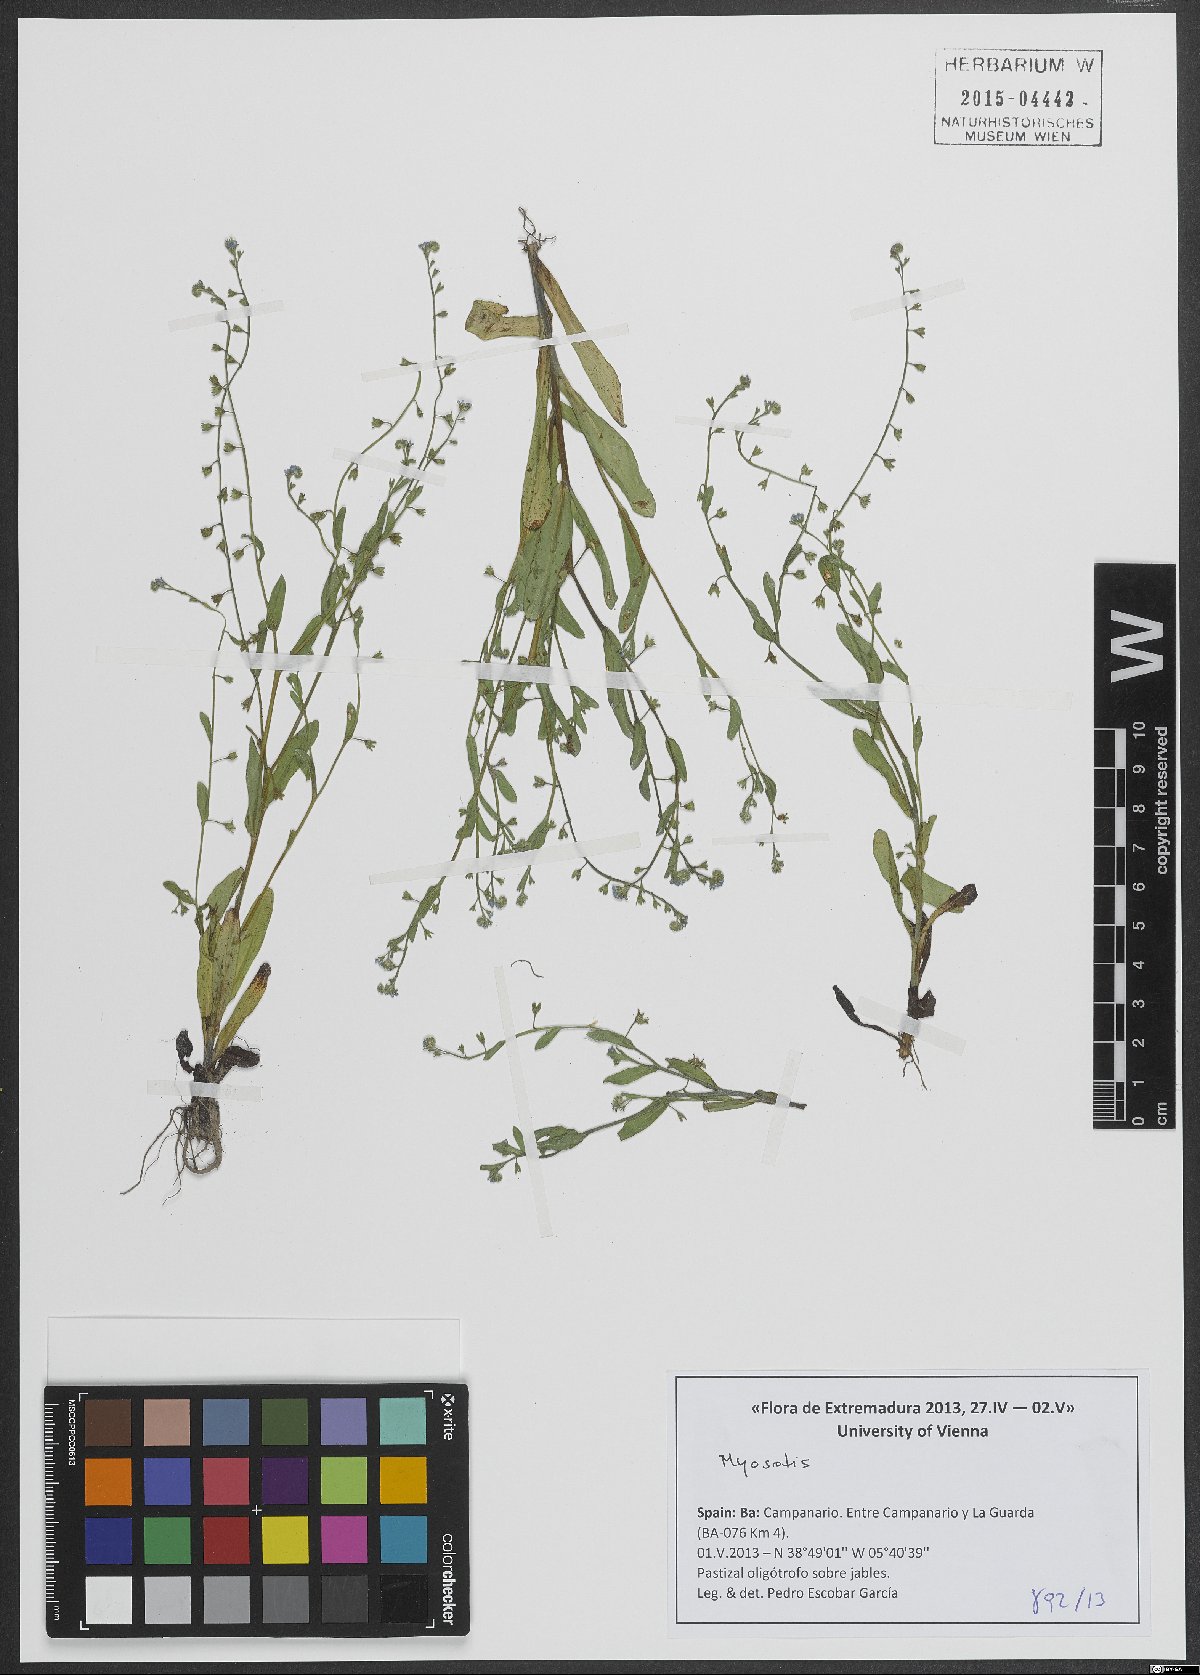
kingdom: Plantae
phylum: Tracheophyta
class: Magnoliopsida
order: Boraginales
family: Boraginaceae
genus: Myosotis
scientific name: Myosotis
